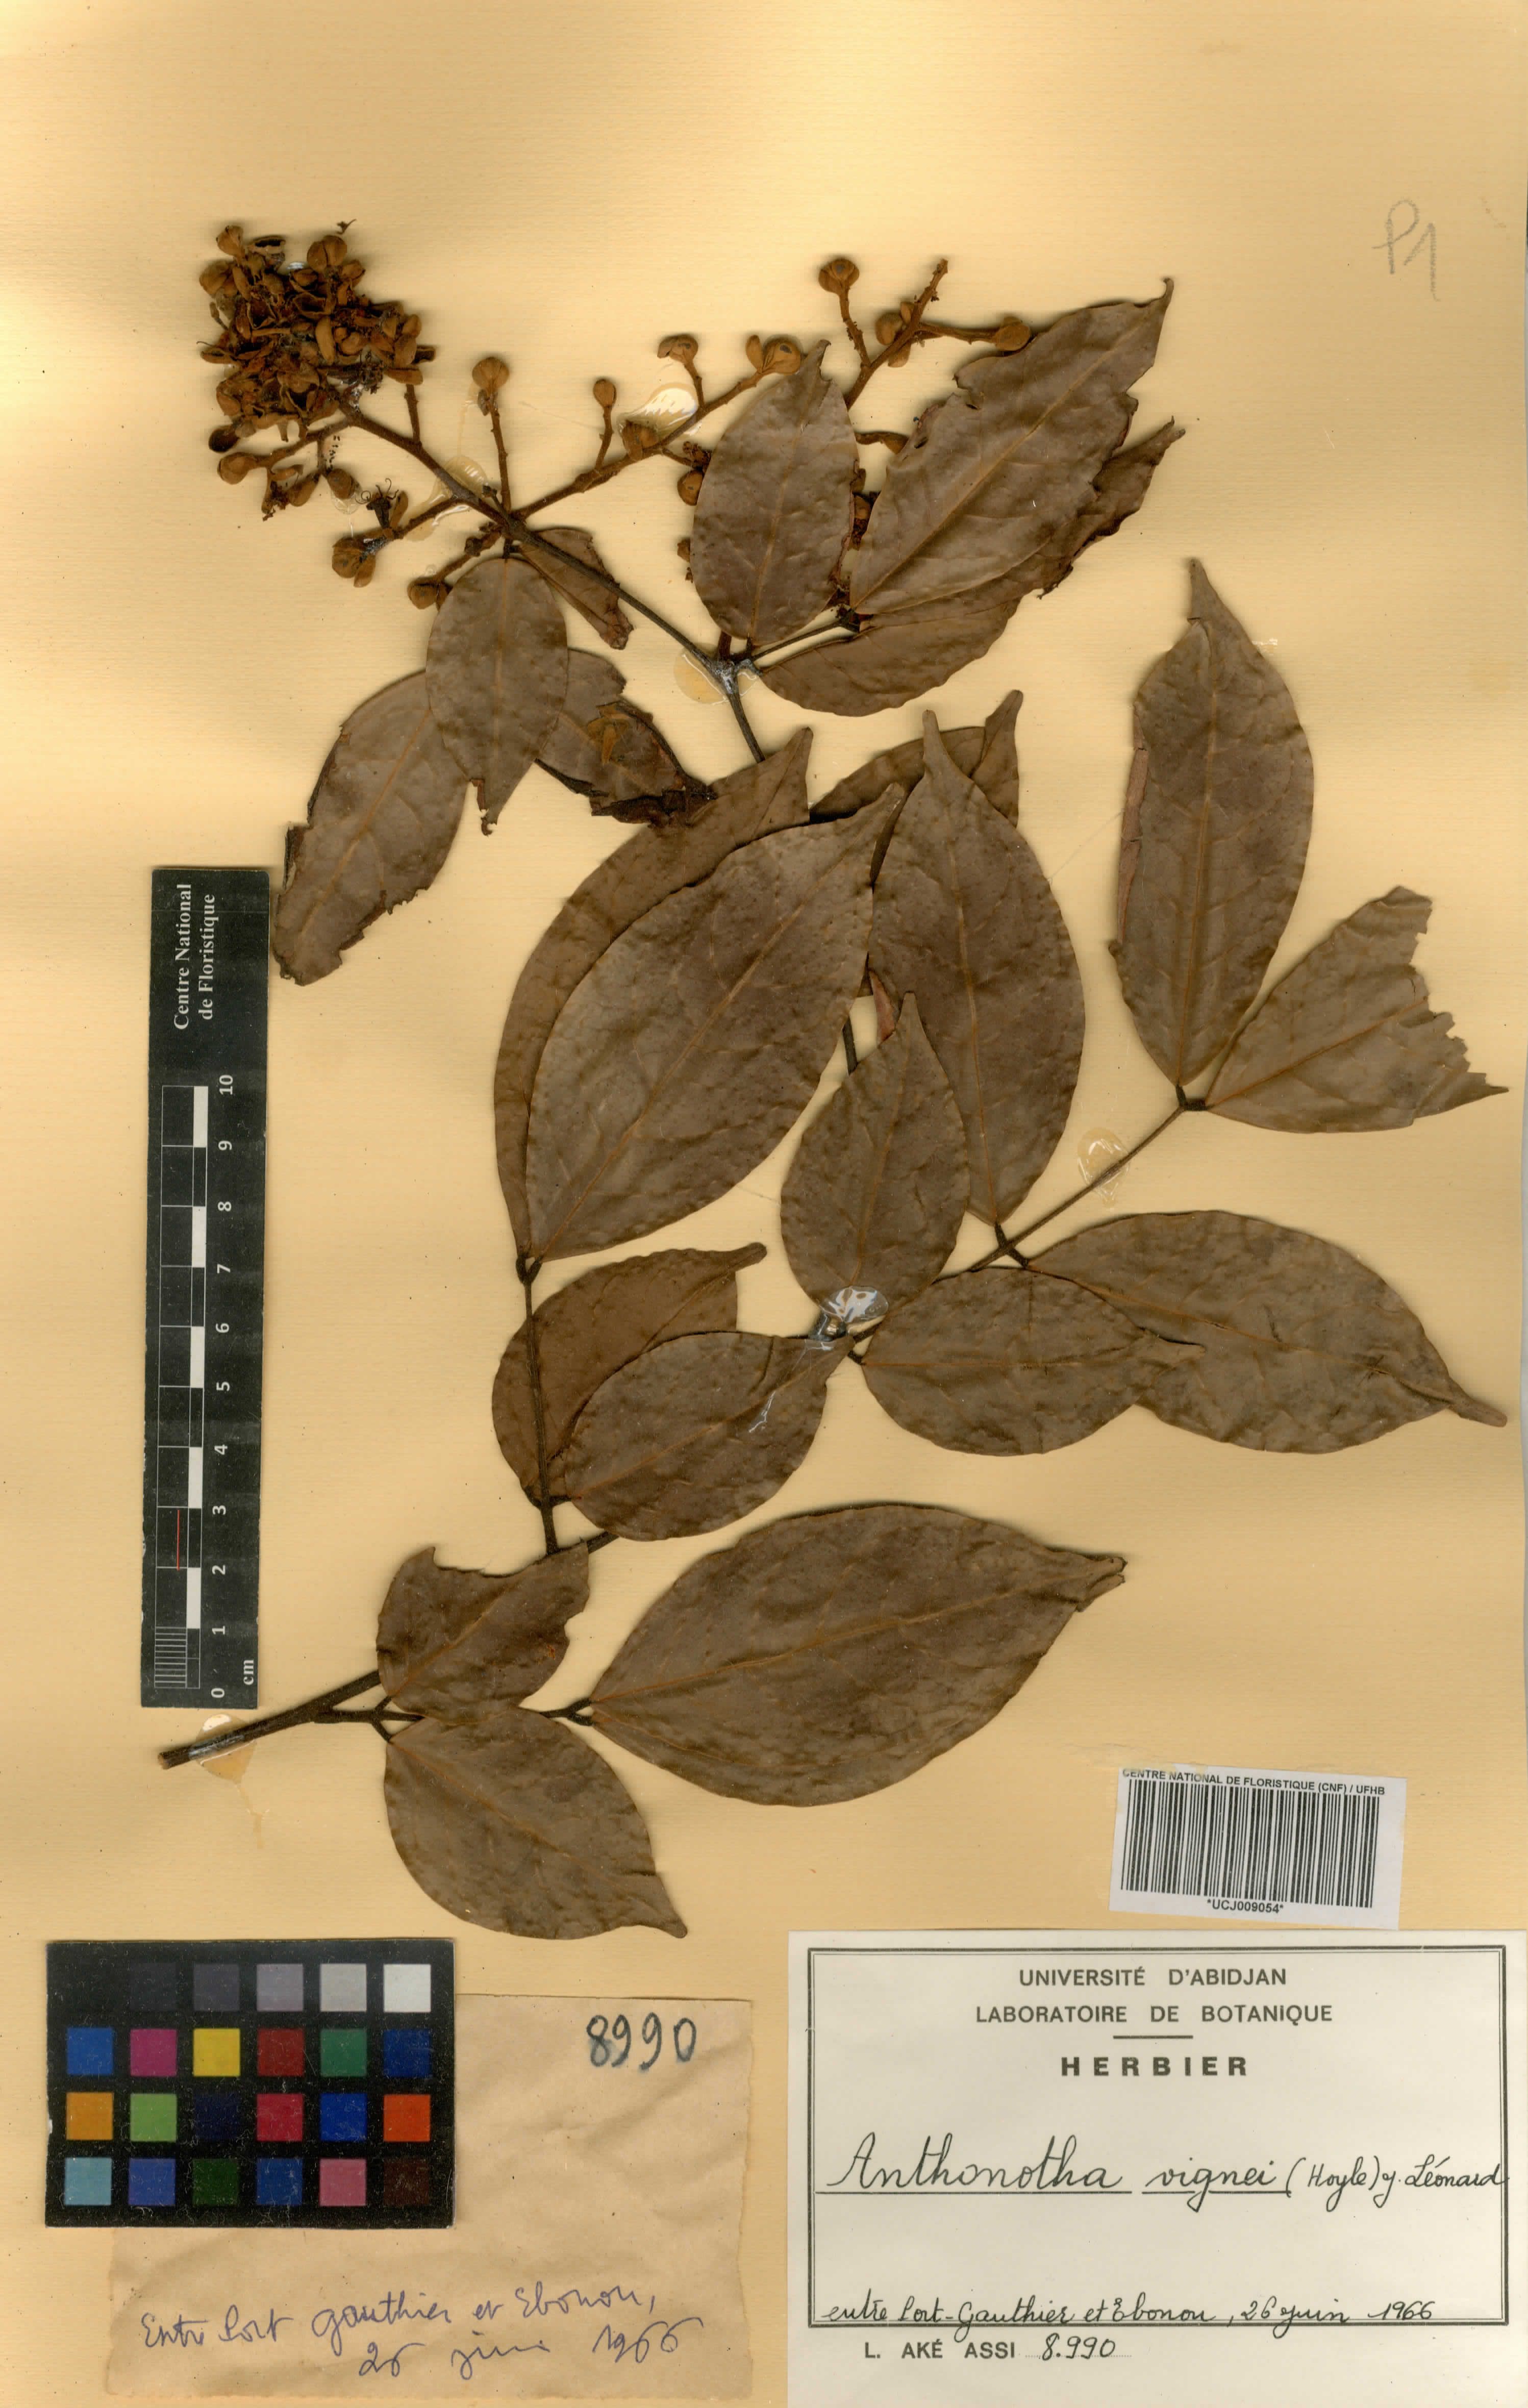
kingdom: Plantae
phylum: Tracheophyta
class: Magnoliopsida
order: Fabales
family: Fabaceae
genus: Englerodendron
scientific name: Englerodendron vignei
